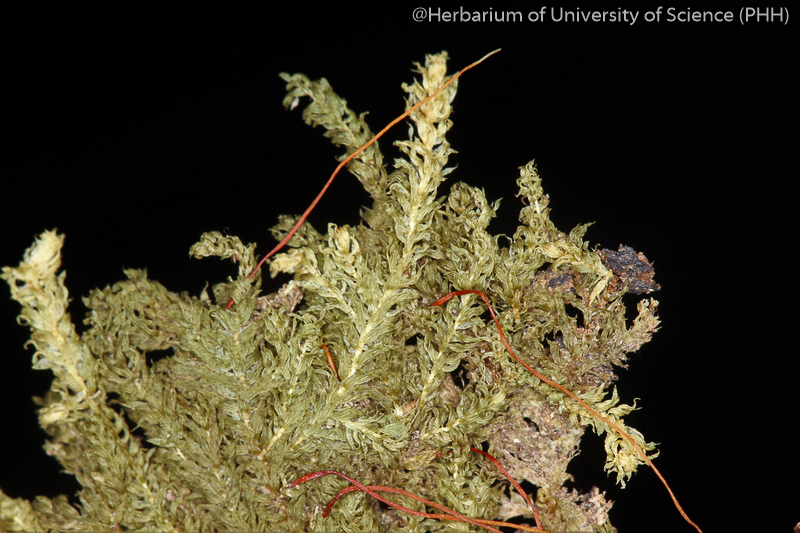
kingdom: Plantae
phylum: Bryophyta
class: Bryopsida
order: Hookeriales
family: Pilotrichaceae
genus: Callicostella
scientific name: Callicostella papillata
